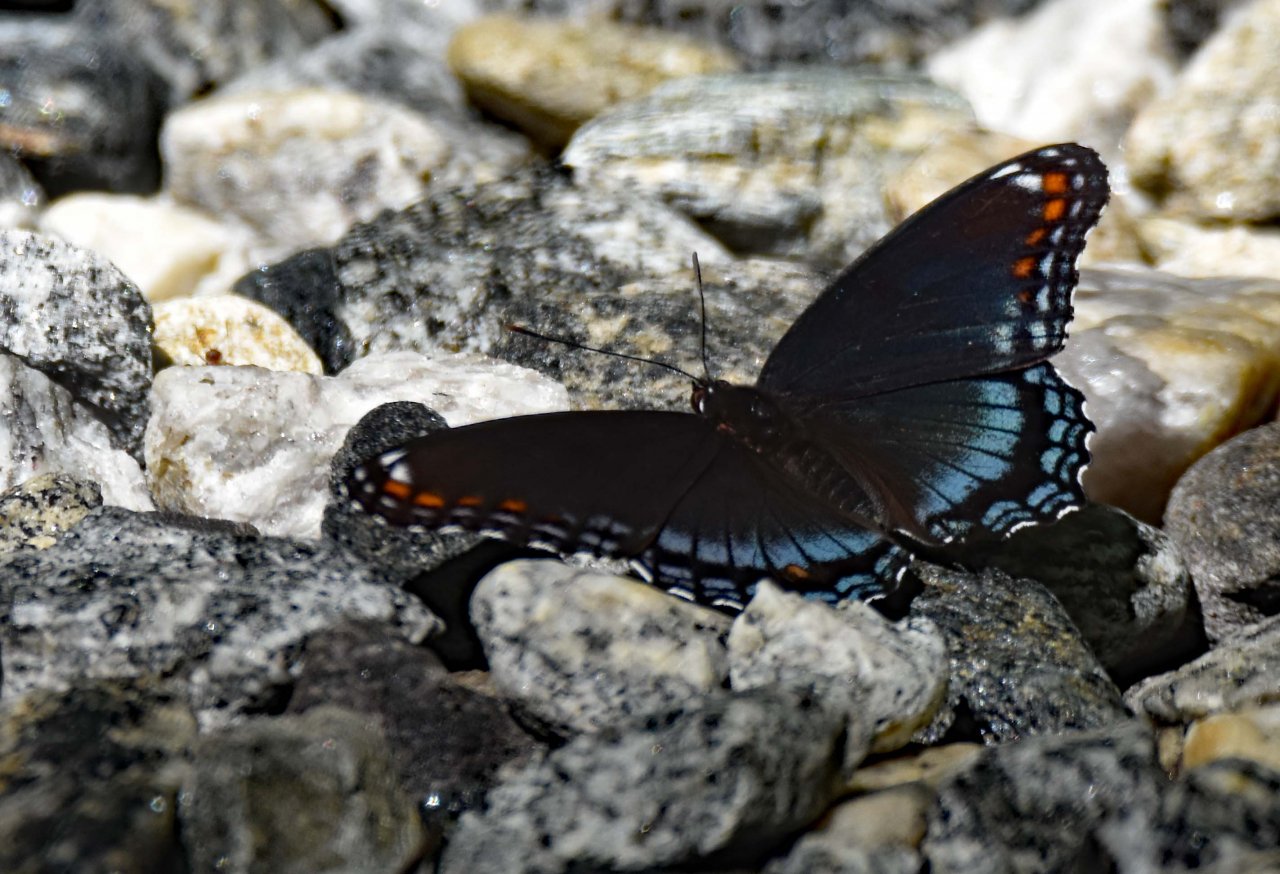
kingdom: Animalia
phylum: Arthropoda
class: Insecta
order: Lepidoptera
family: Nymphalidae
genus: Limenitis
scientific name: Limenitis astyanax
